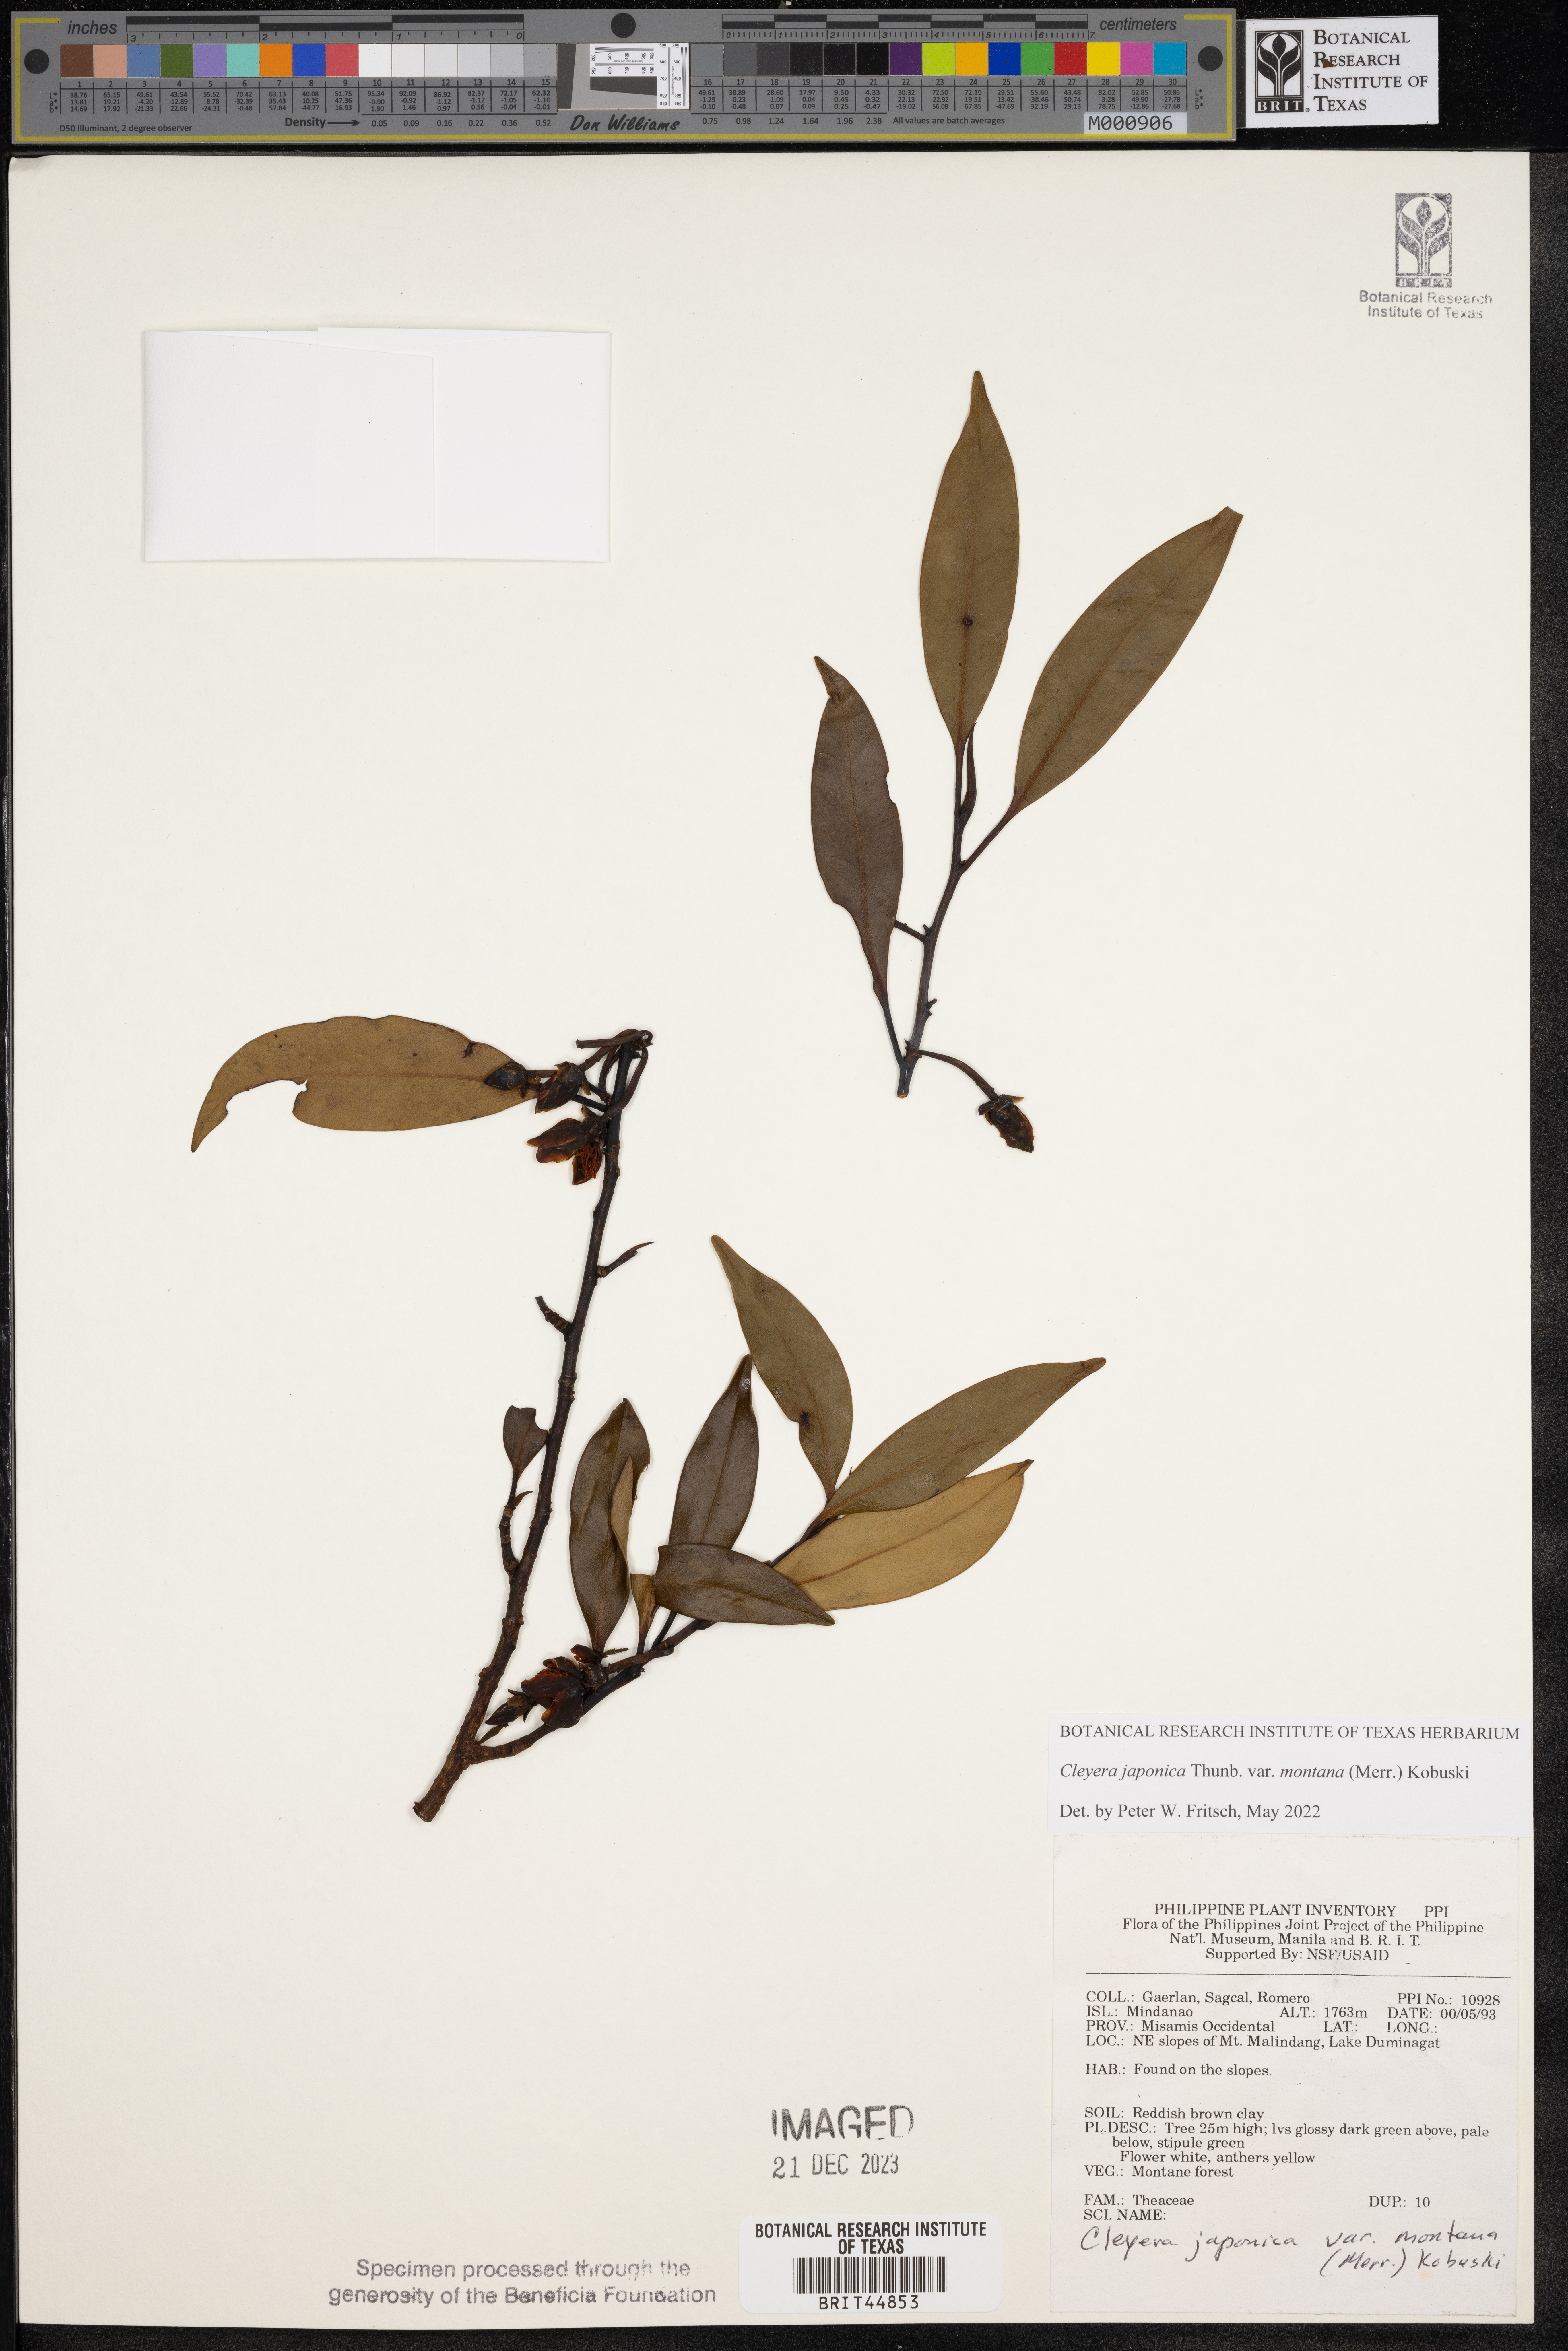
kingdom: Plantae
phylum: Tracheophyta
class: Magnoliopsida
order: Ericales
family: Pentaphylacaceae
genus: Cleyera
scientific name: Cleyera japonica
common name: Sakaki
